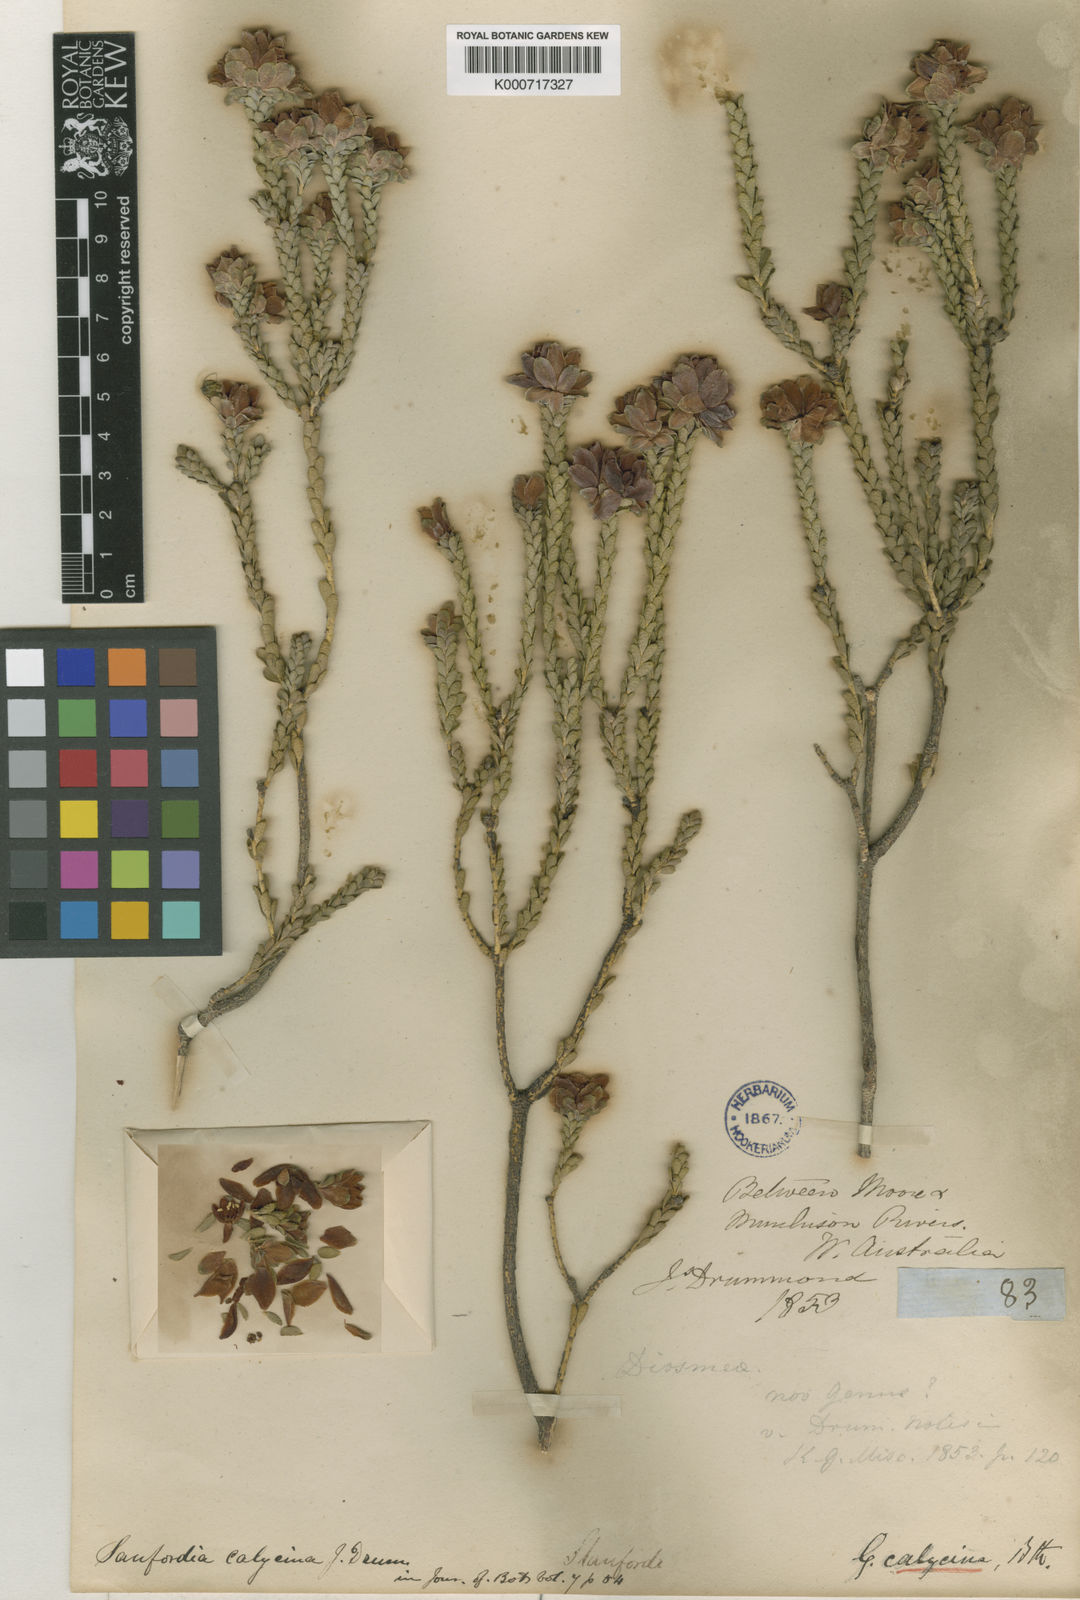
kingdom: Plantae
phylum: Tracheophyta
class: Magnoliopsida
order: Sapindales
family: Rutaceae
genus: Geleznowia
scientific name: Geleznowia verrucosa
